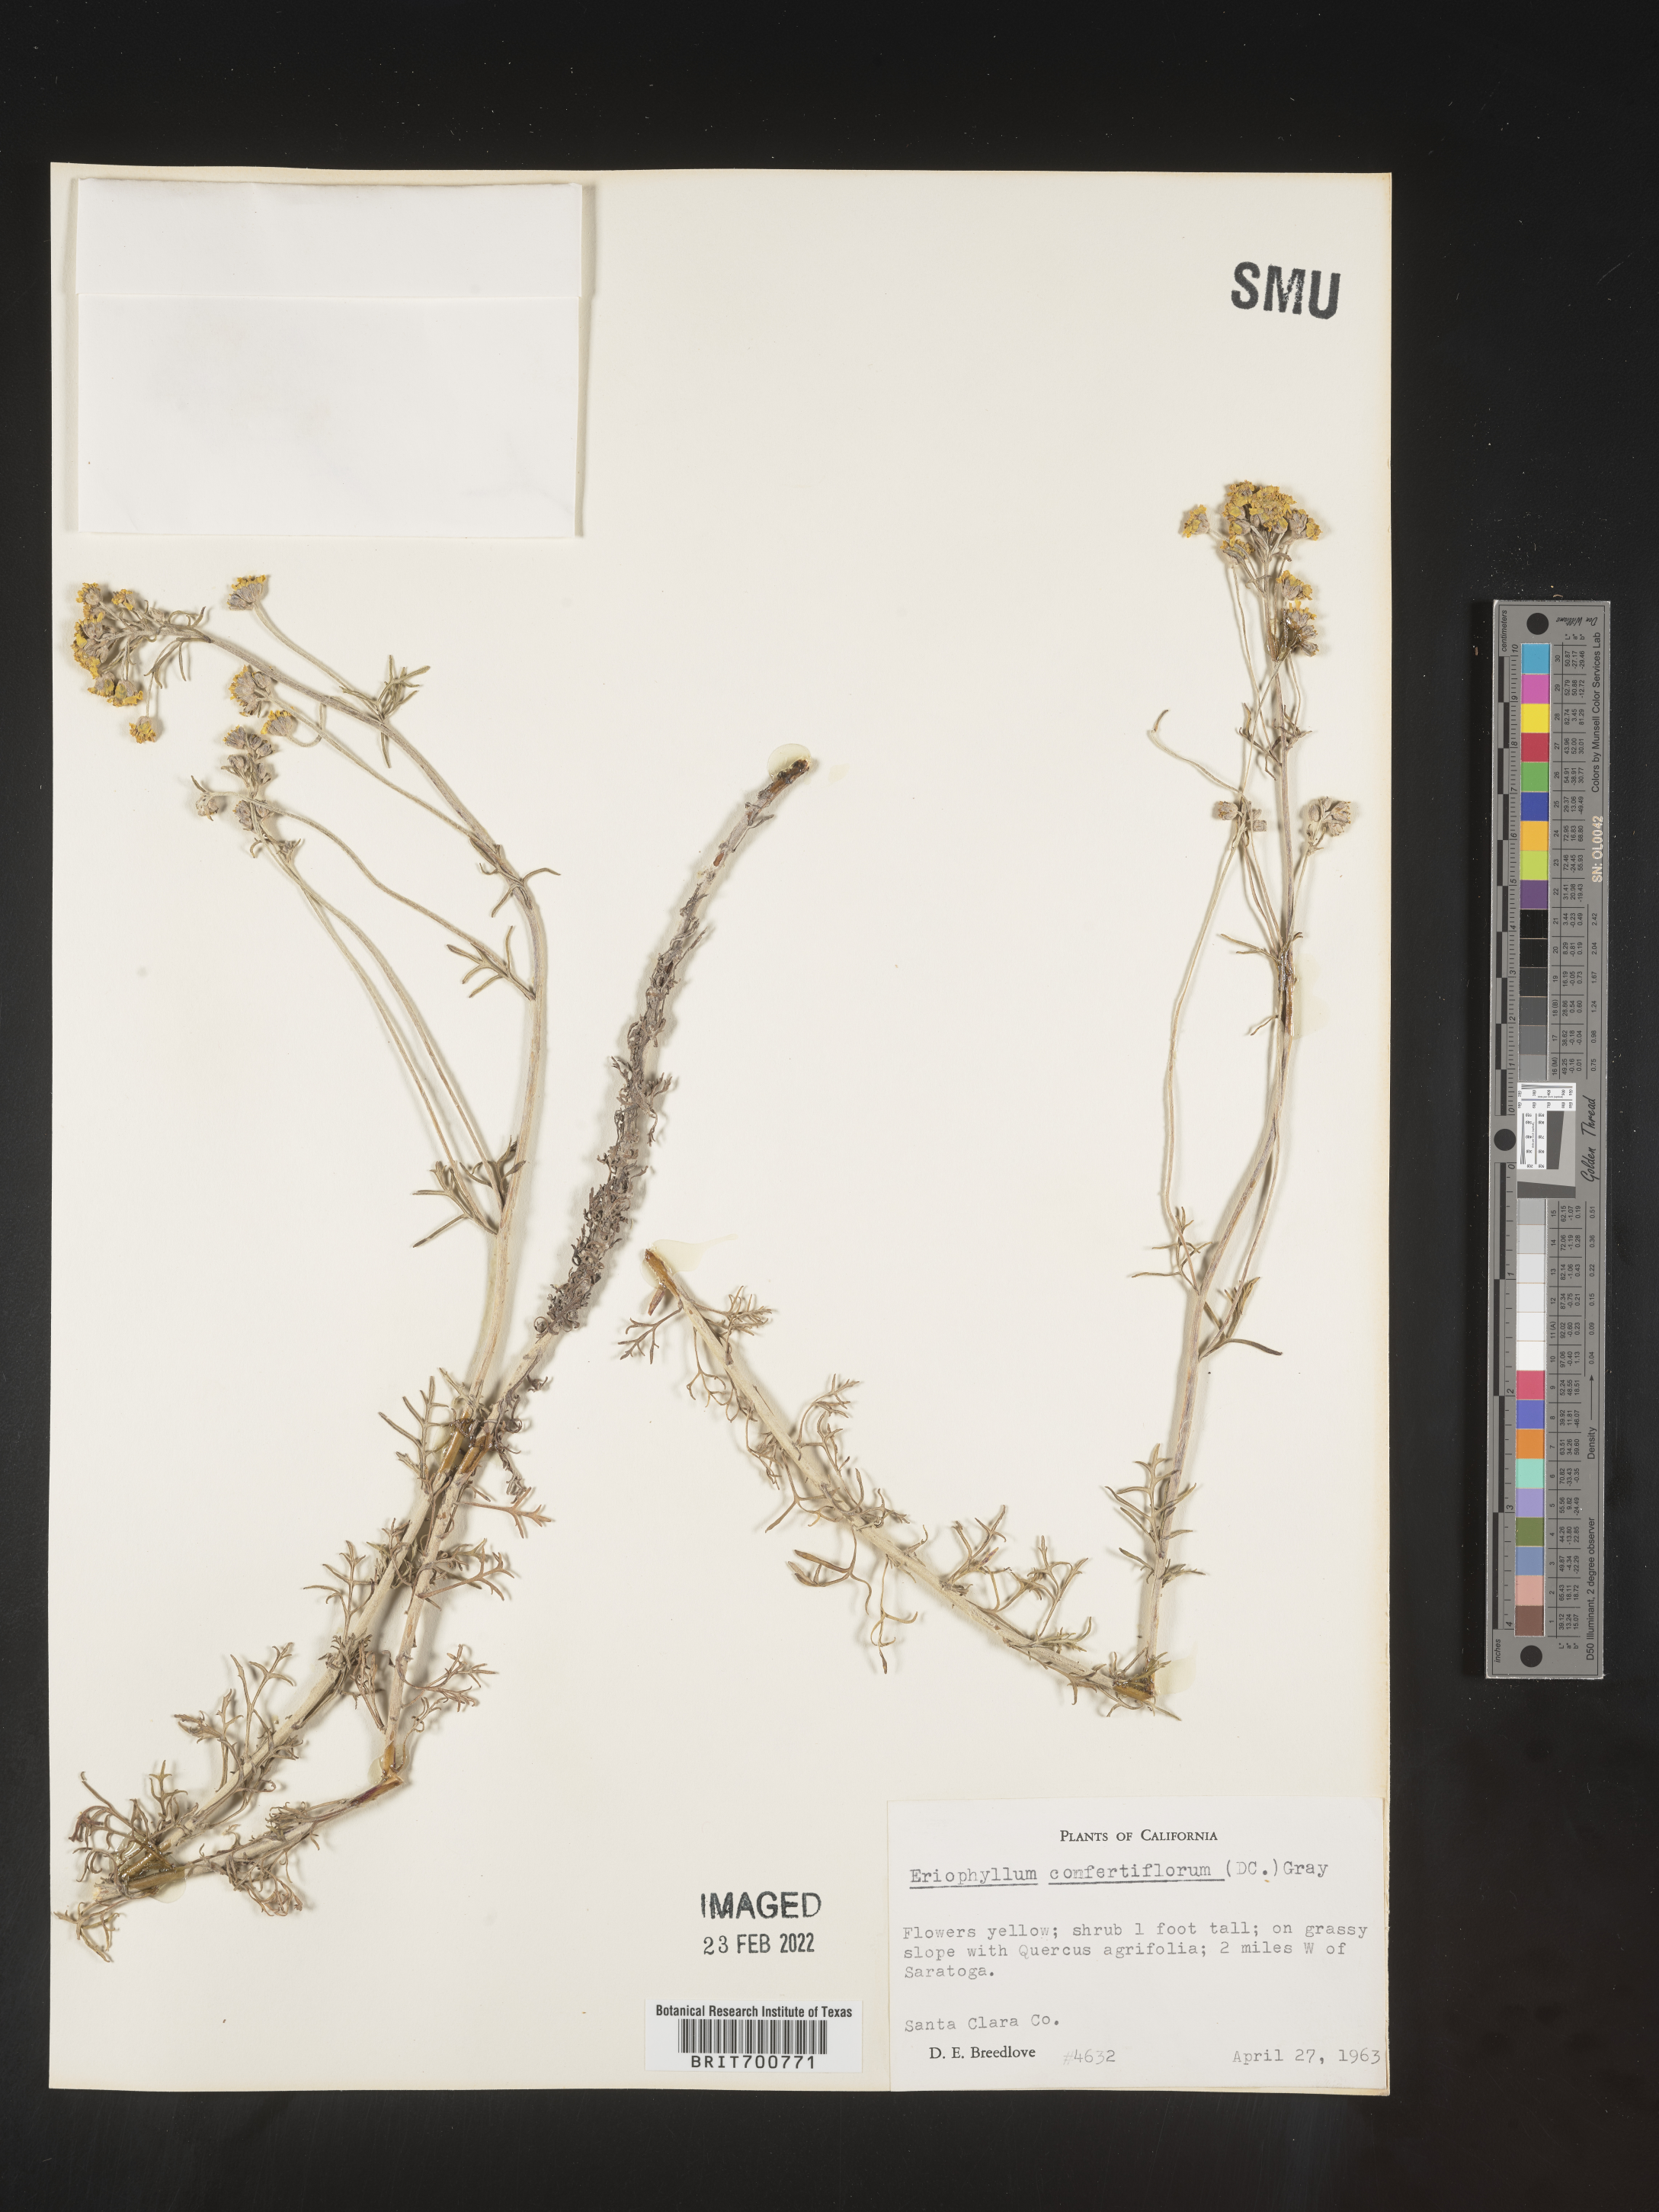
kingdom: Plantae
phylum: Tracheophyta
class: Magnoliopsida
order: Asterales
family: Asteraceae
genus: Eriophyllum
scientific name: Eriophyllum confertiflorum
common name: Golden-yarrow
